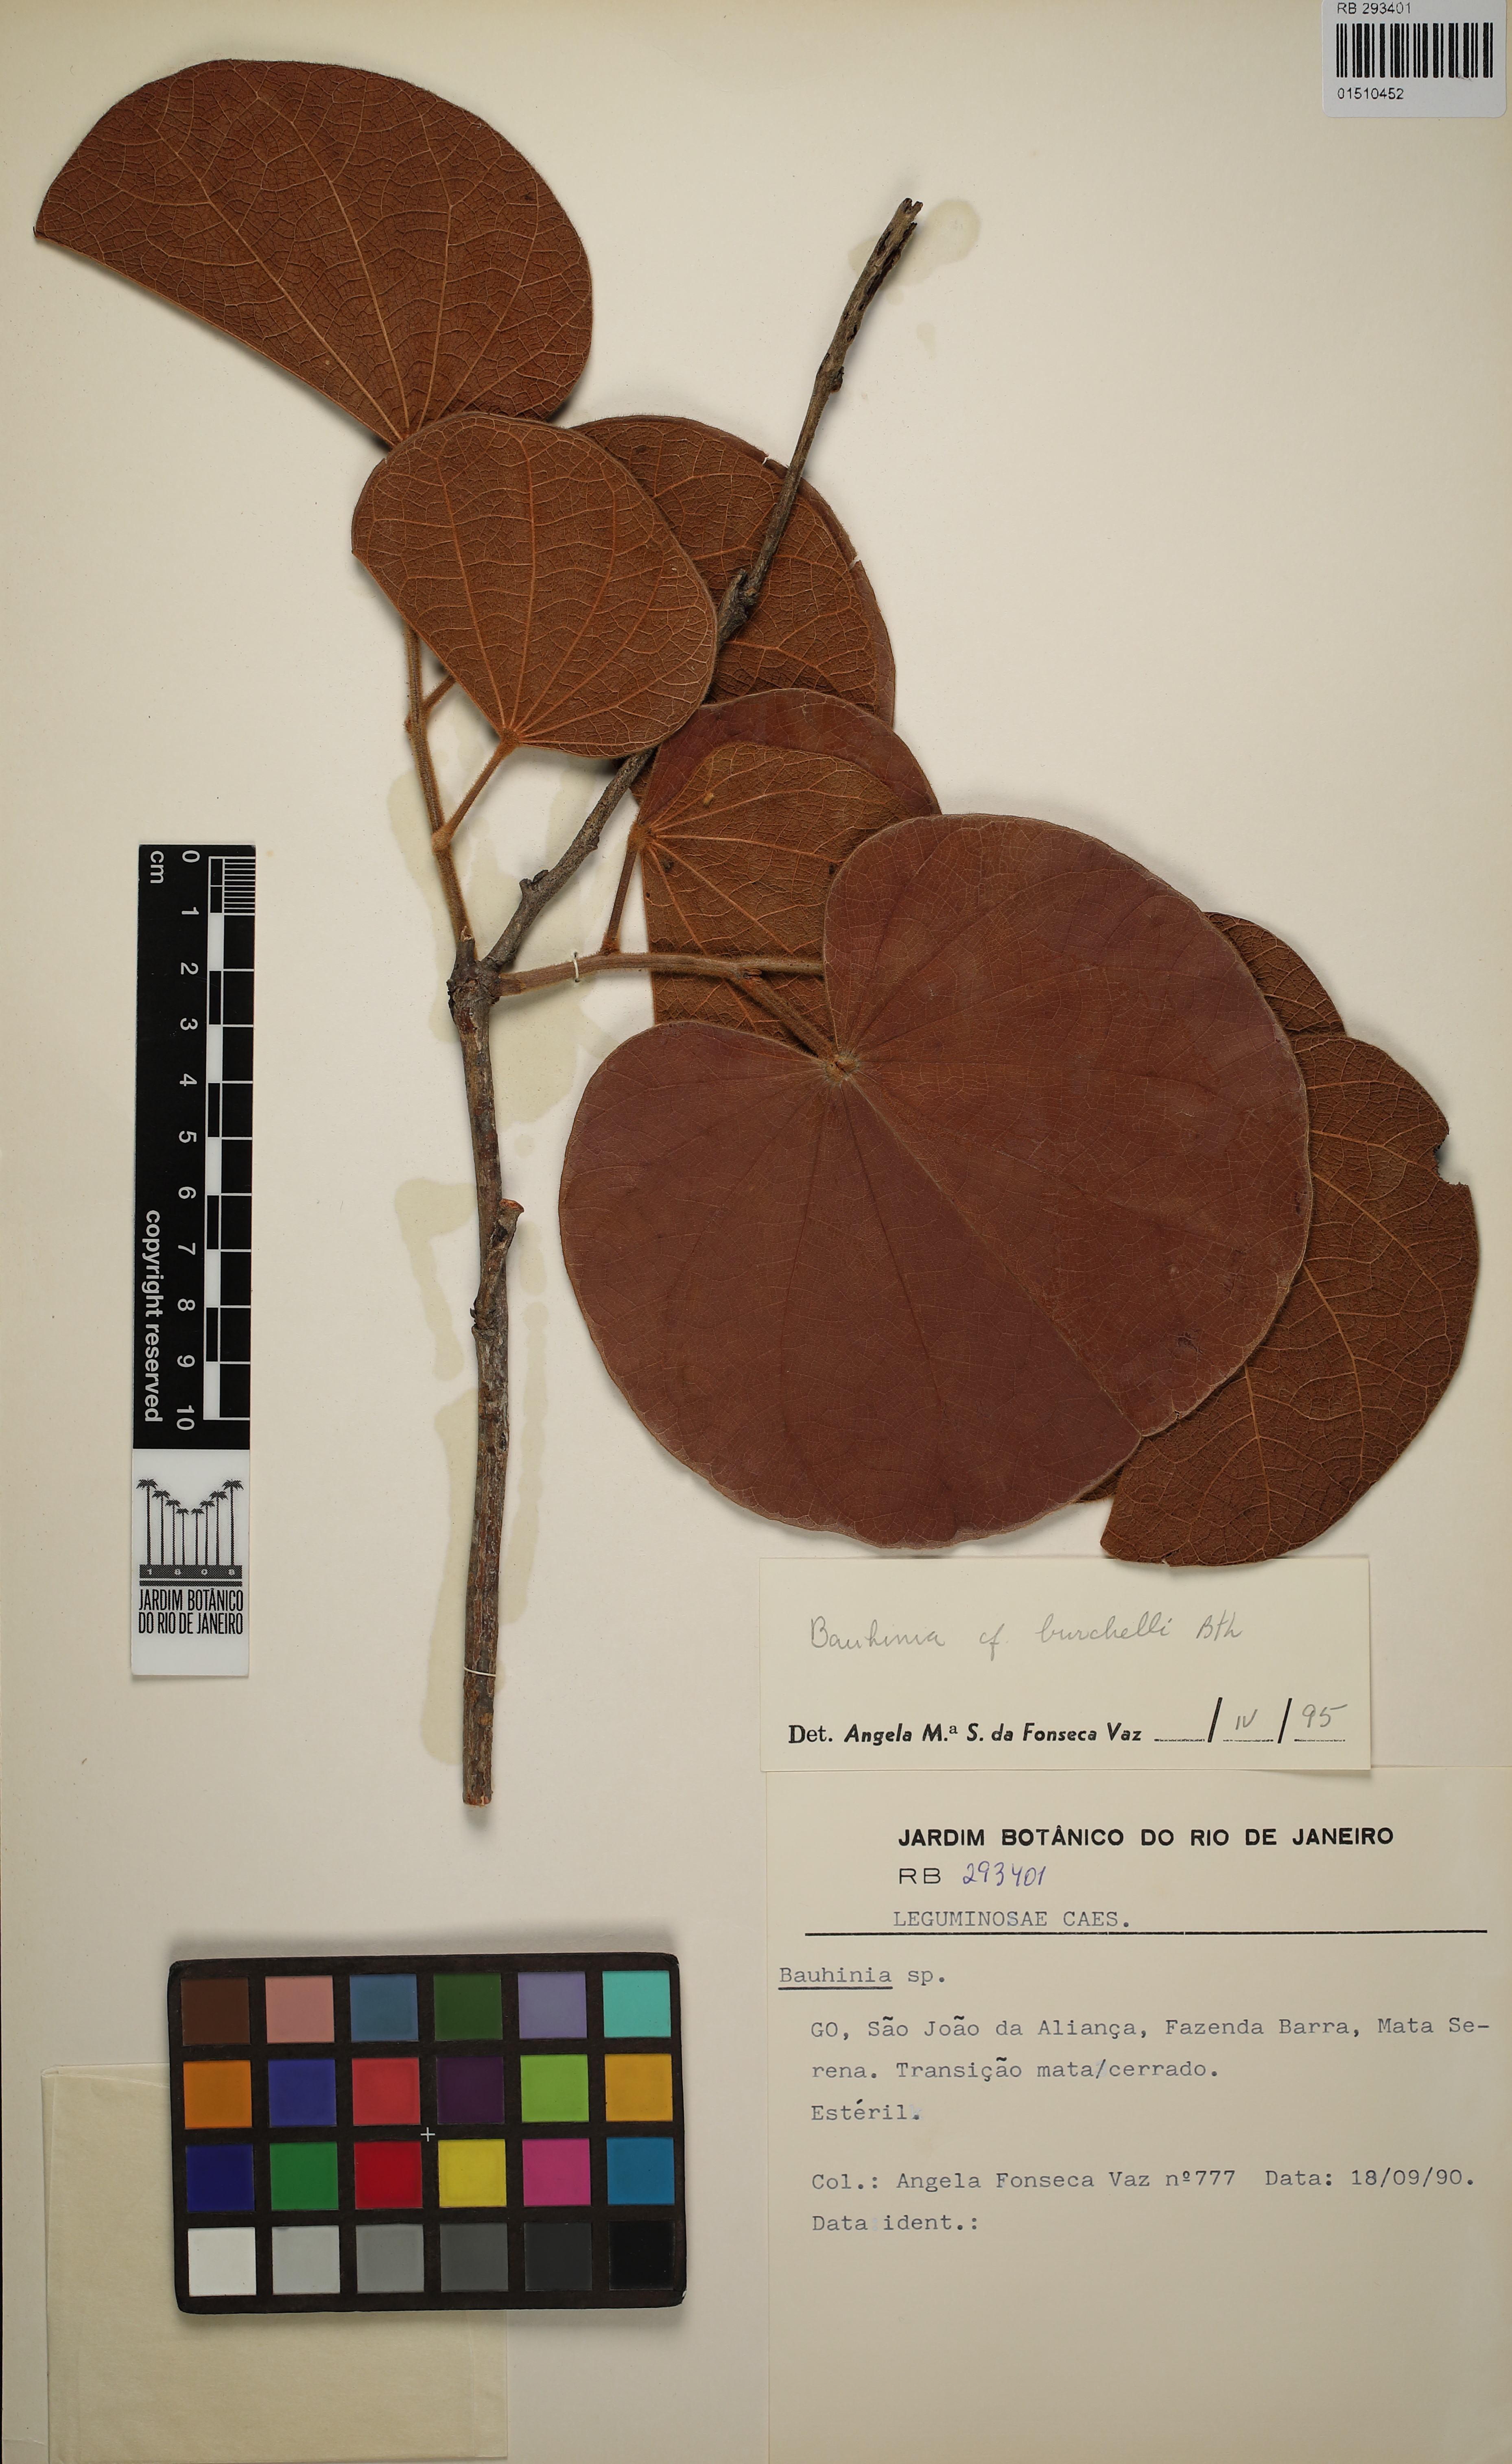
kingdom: Plantae
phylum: Tracheophyta
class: Magnoliopsida
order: Fabales
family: Fabaceae
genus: Bauhinia
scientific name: Bauhinia burchellii
